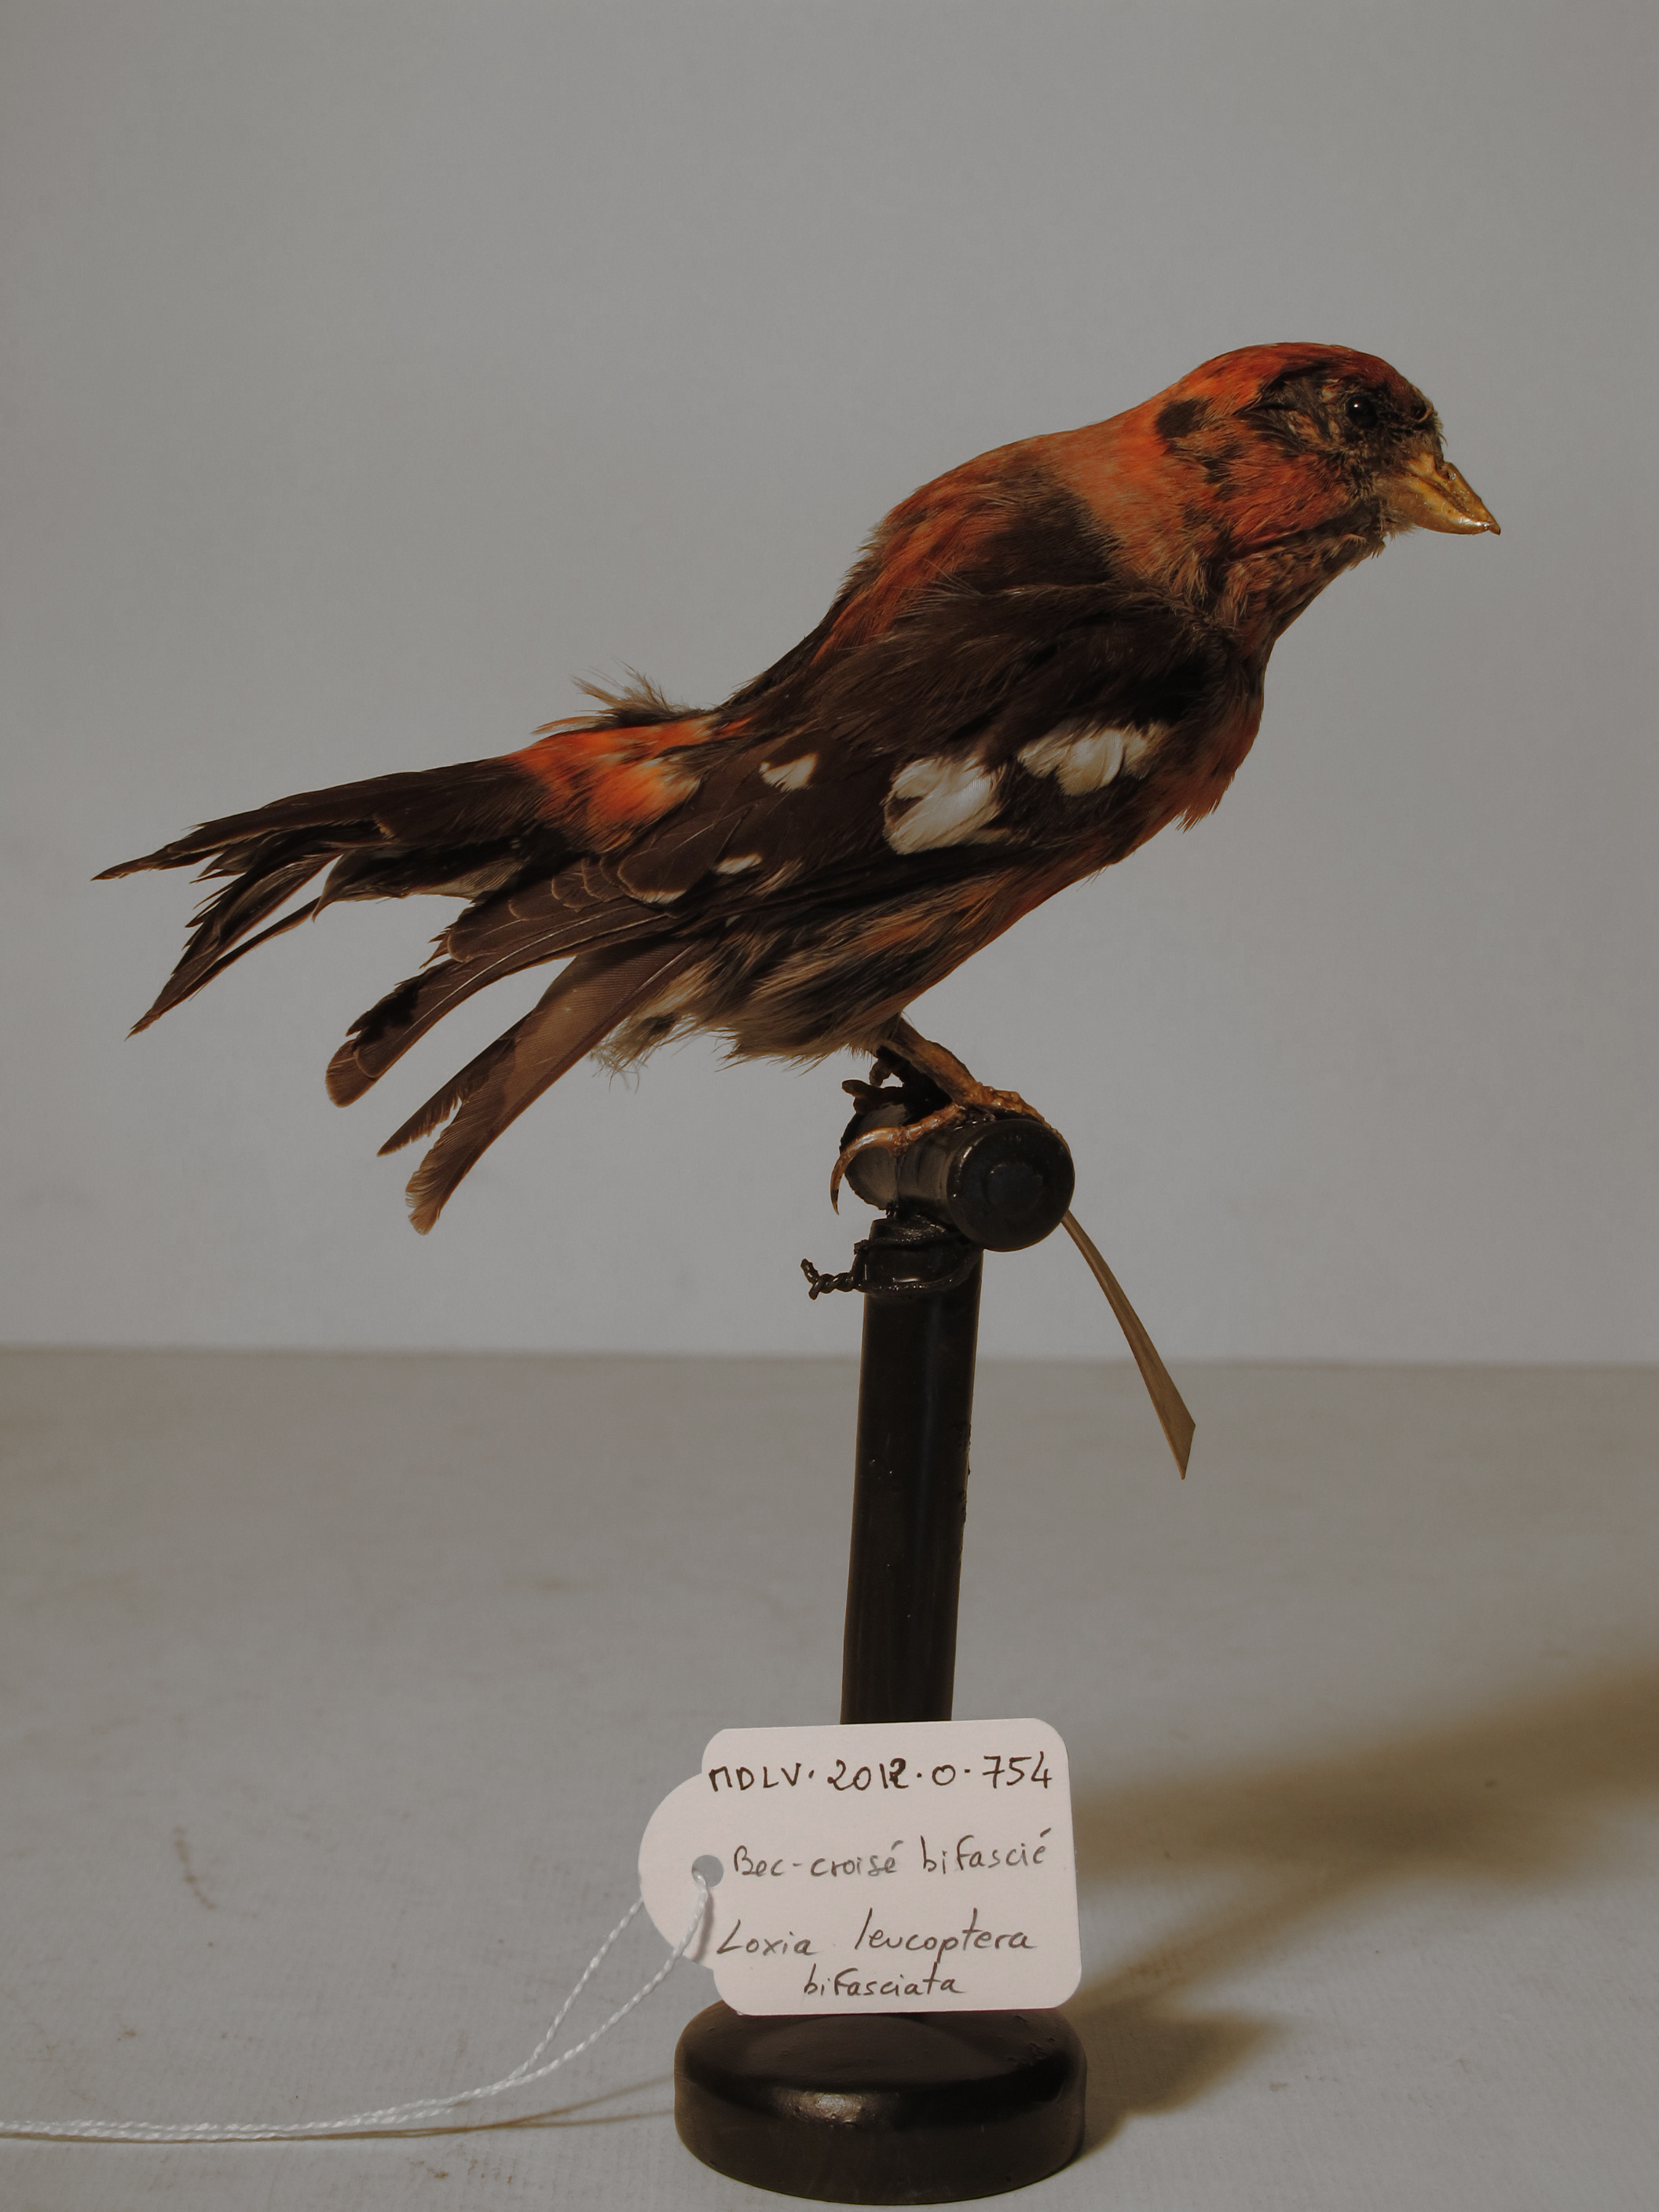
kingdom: Animalia
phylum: Chordata
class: Aves
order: Passeriformes
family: Fringillidae
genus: Loxia
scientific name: Loxia leucoptera
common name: Two-barred Crossbill
